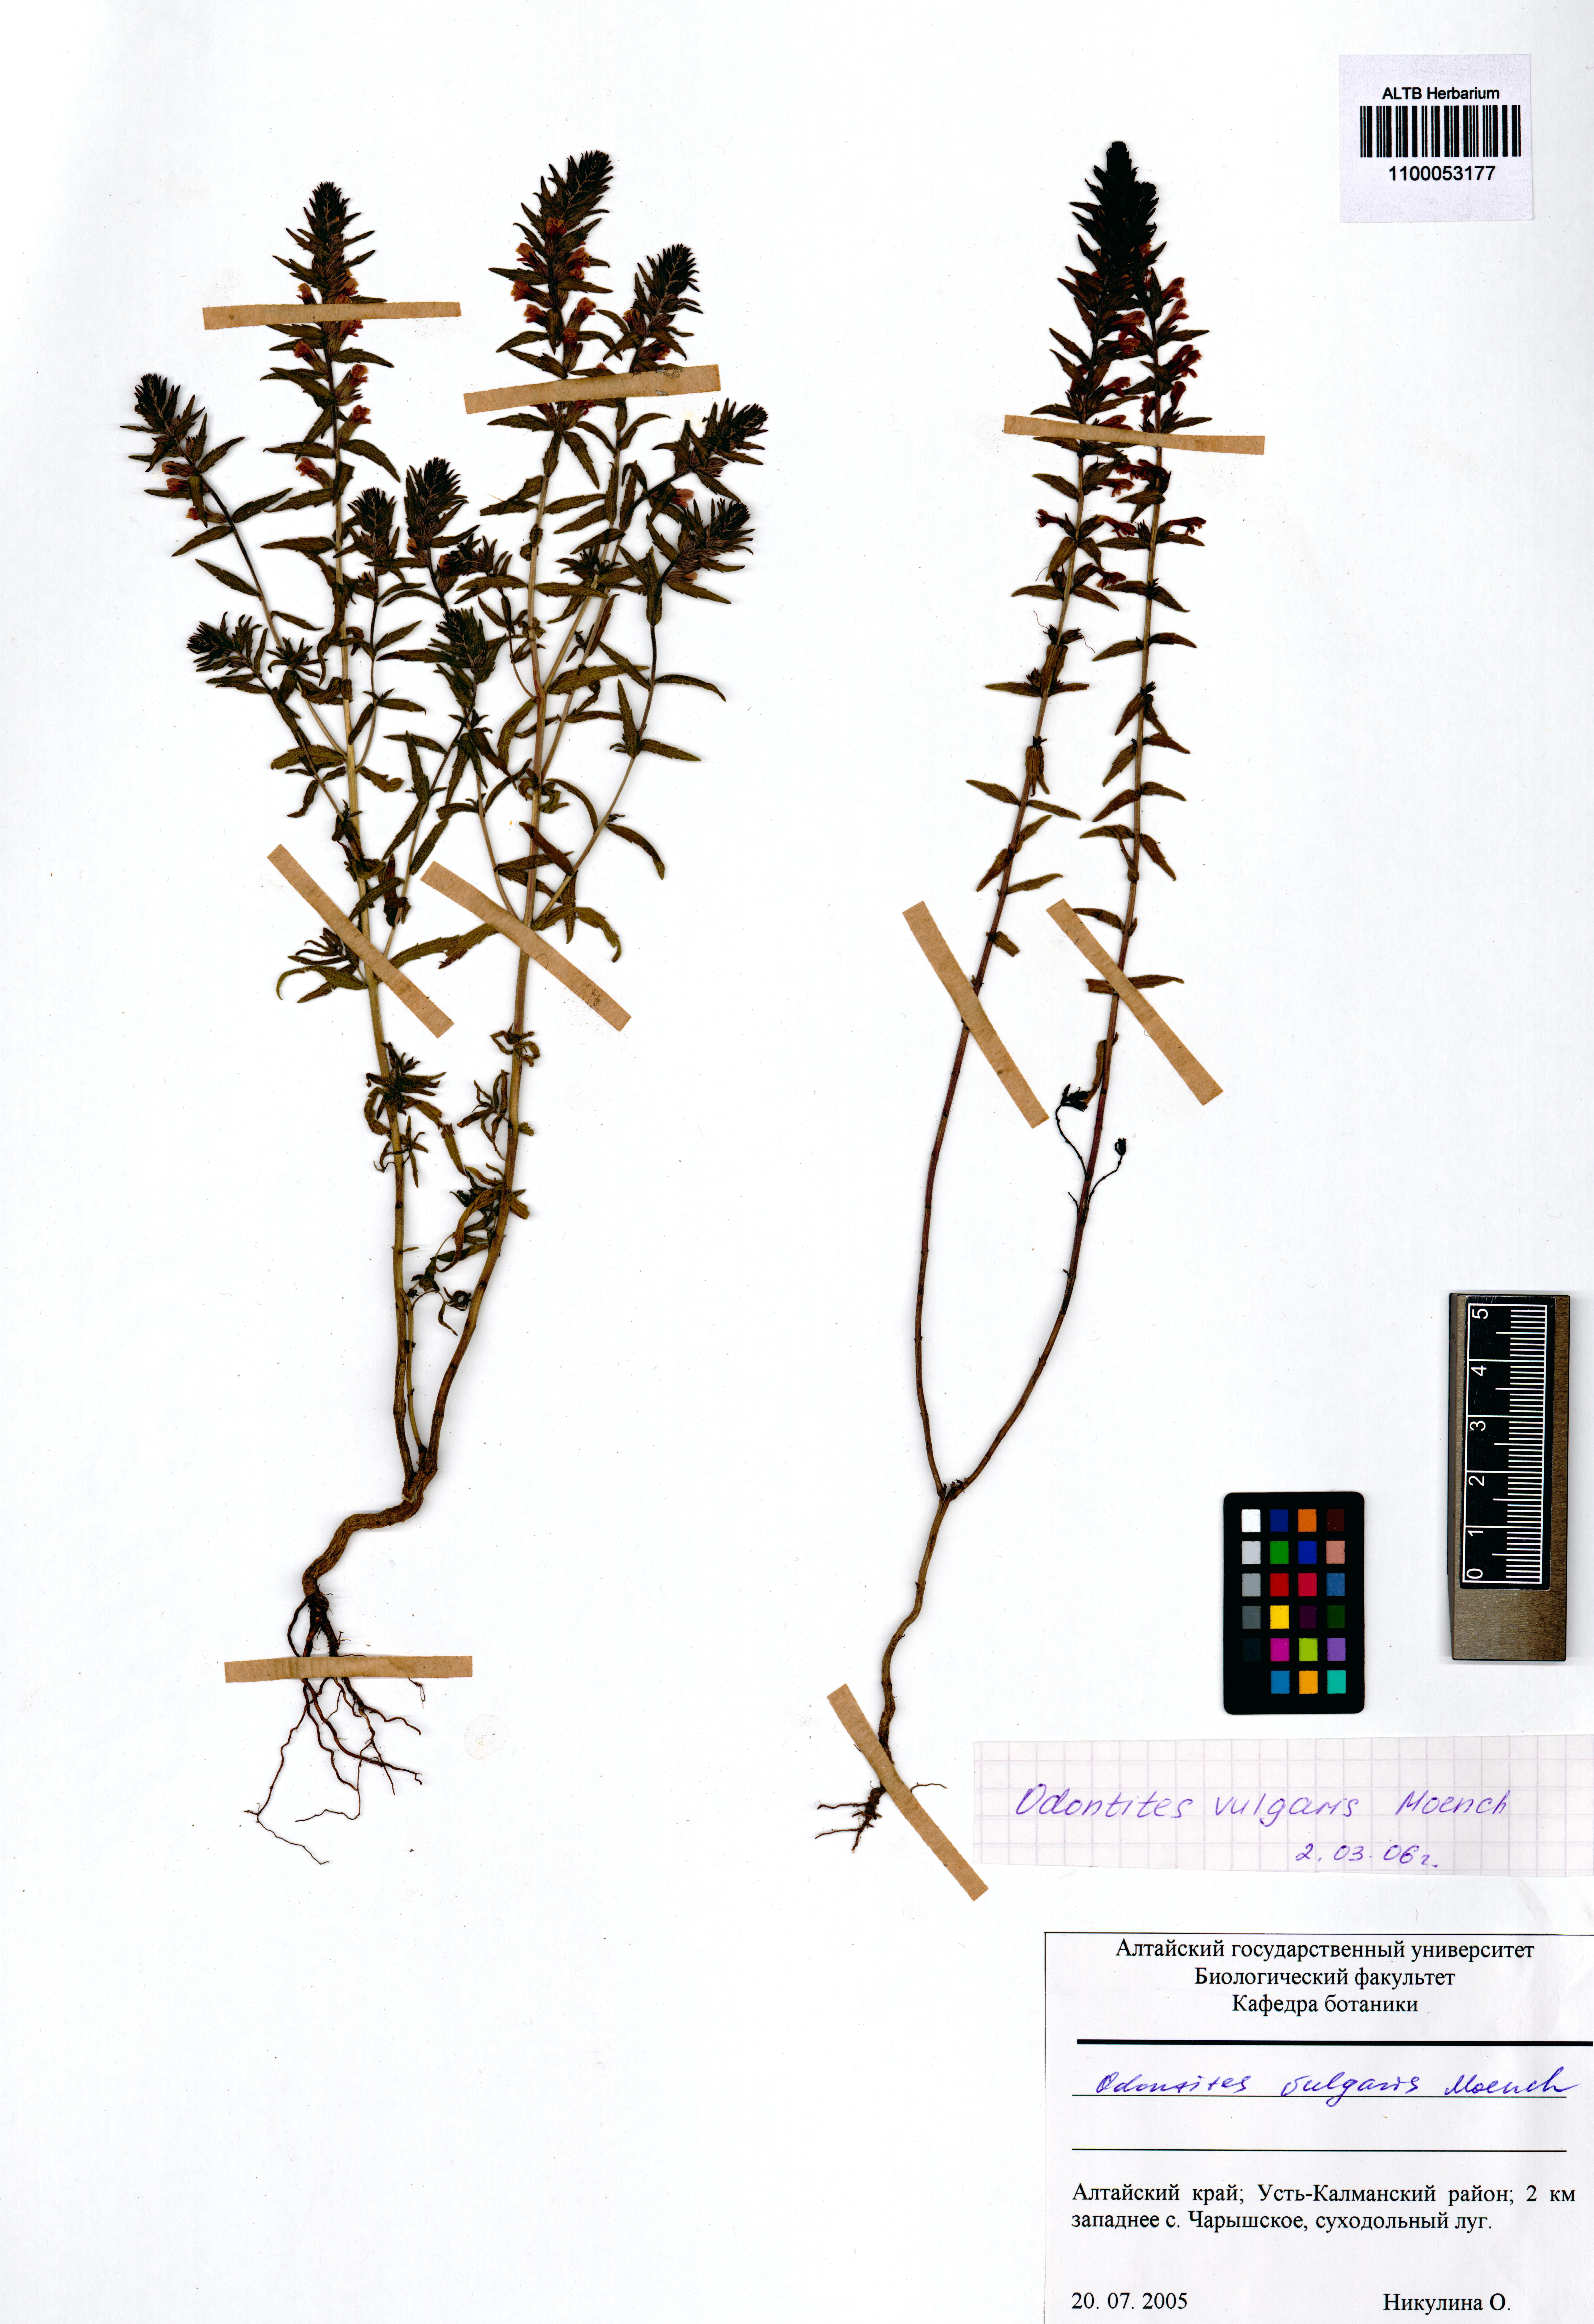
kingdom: Plantae
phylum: Tracheophyta
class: Magnoliopsida
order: Lamiales
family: Orobanchaceae
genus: Odontites
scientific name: Odontites vulgaris
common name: Broomrape
